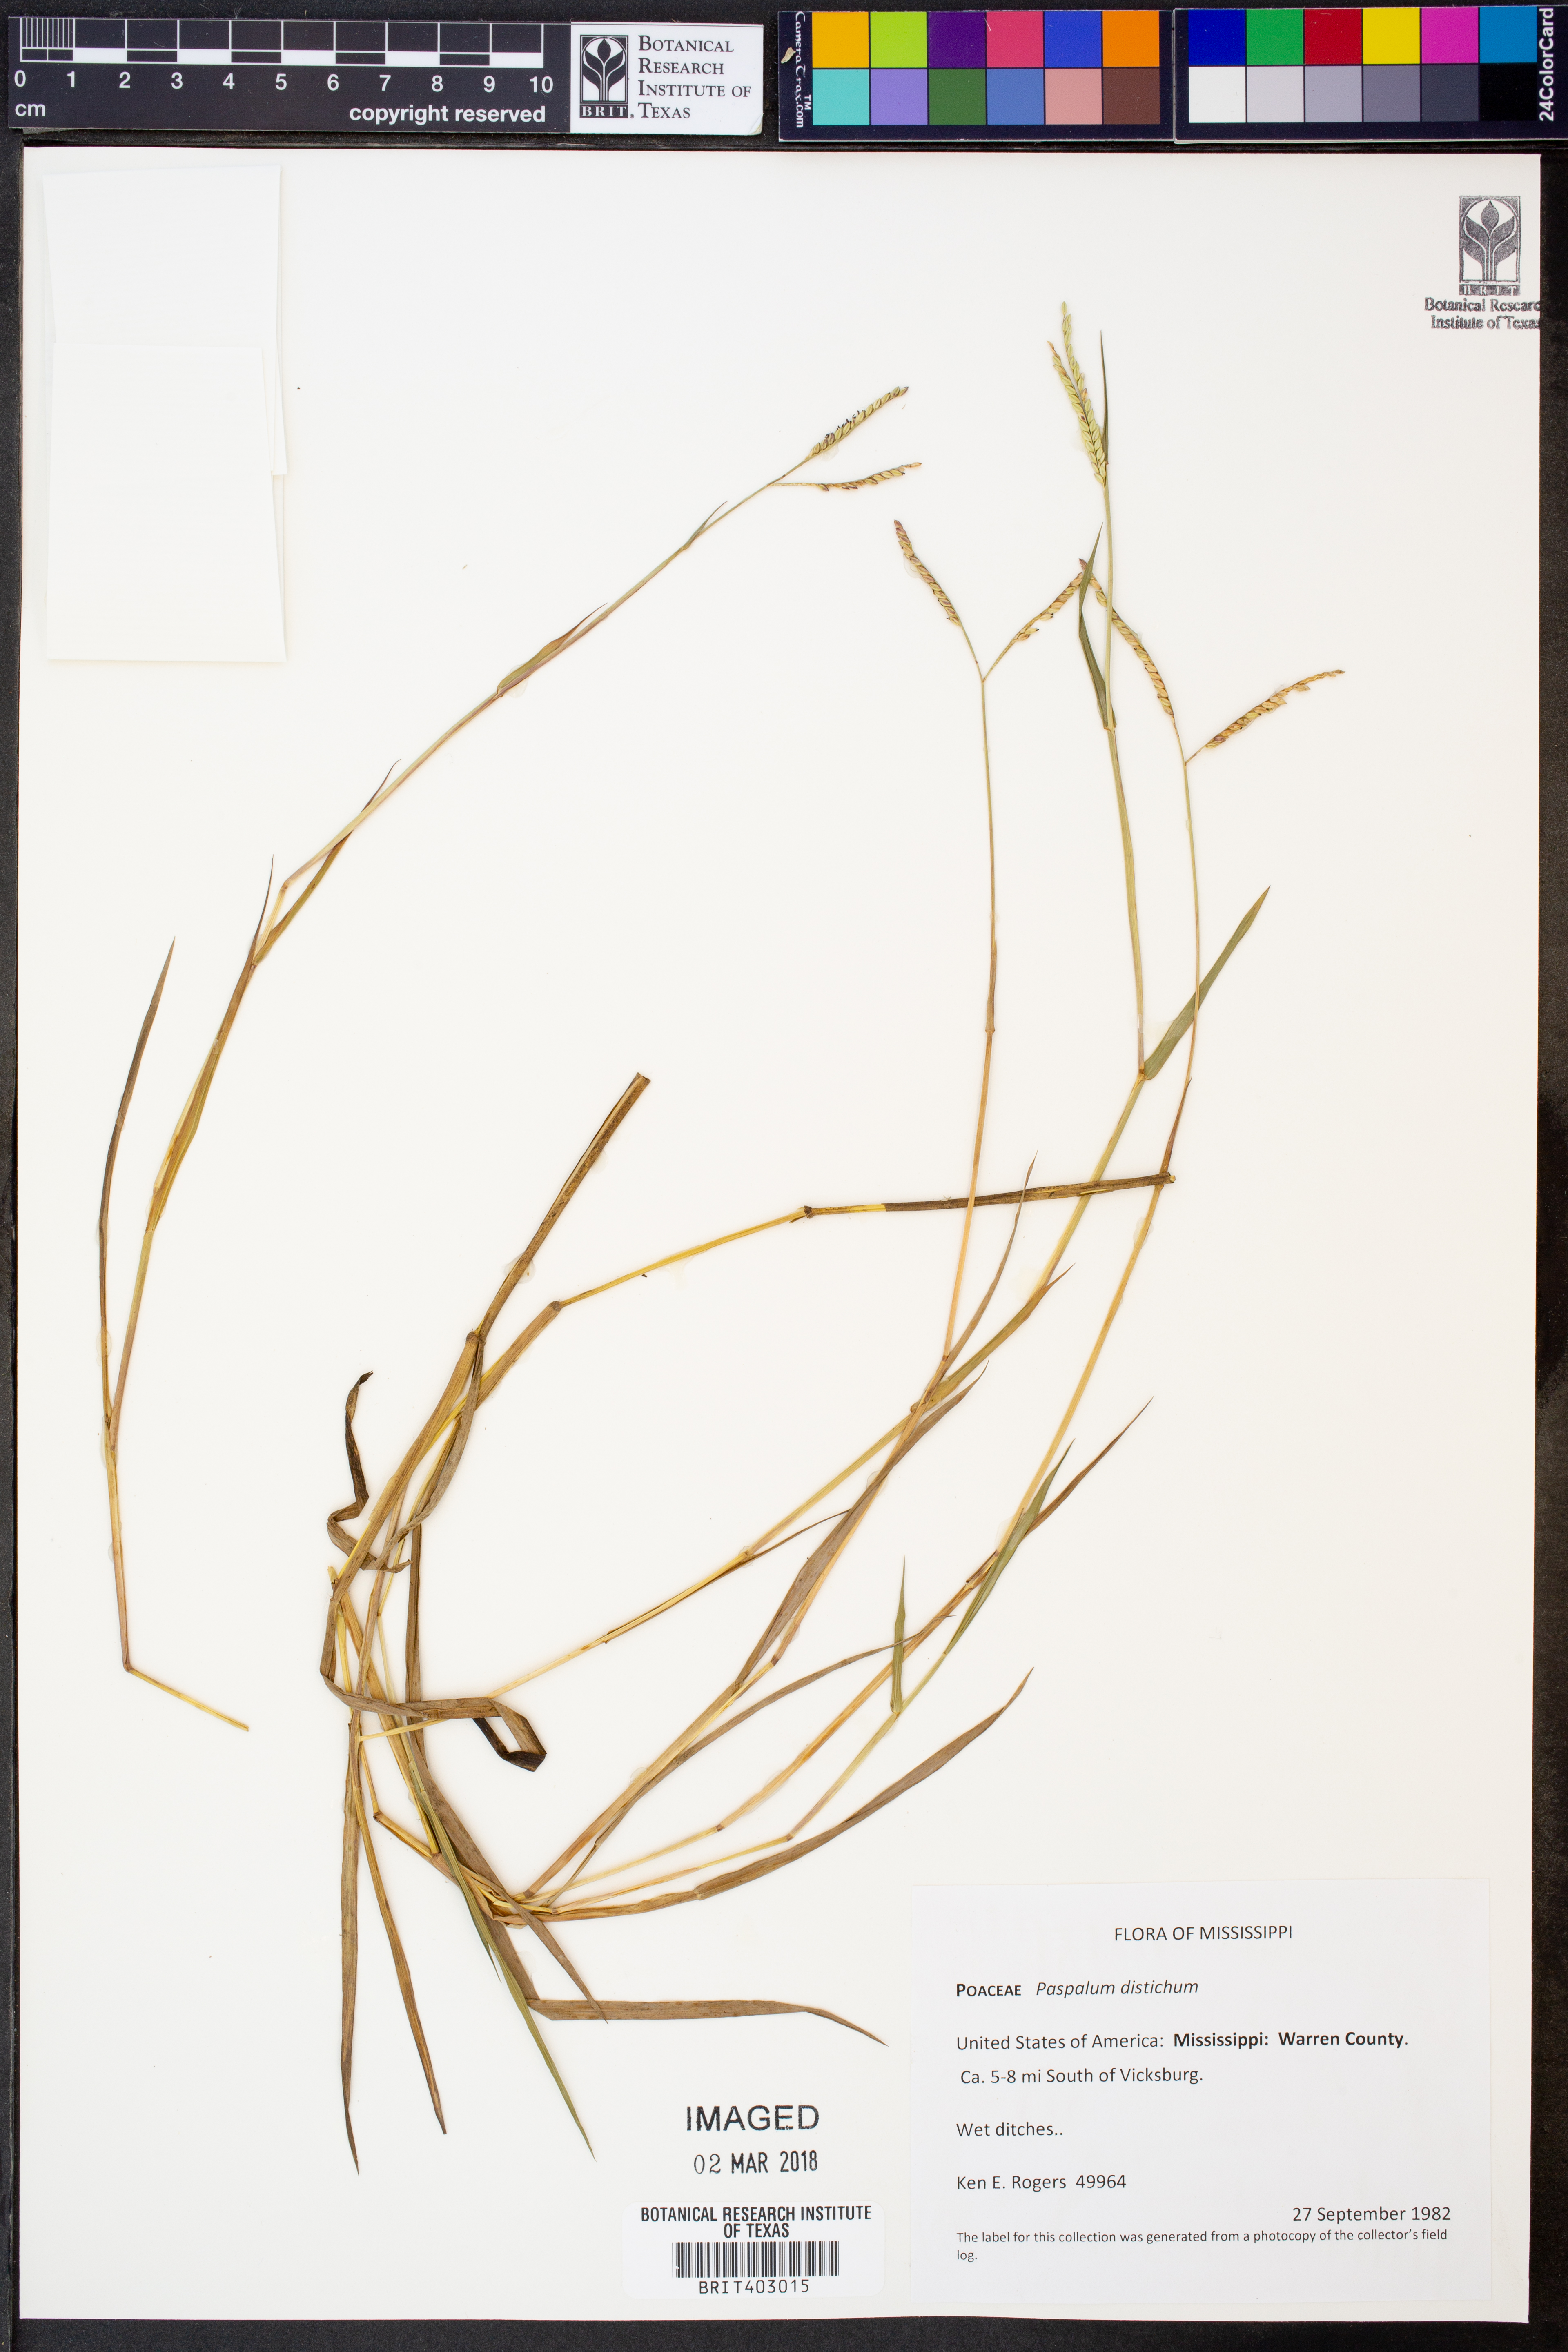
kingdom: Plantae
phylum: Tracheophyta
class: Liliopsida
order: Poales
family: Poaceae
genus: Paspalum
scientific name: Paspalum distichum
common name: Knotgrass
